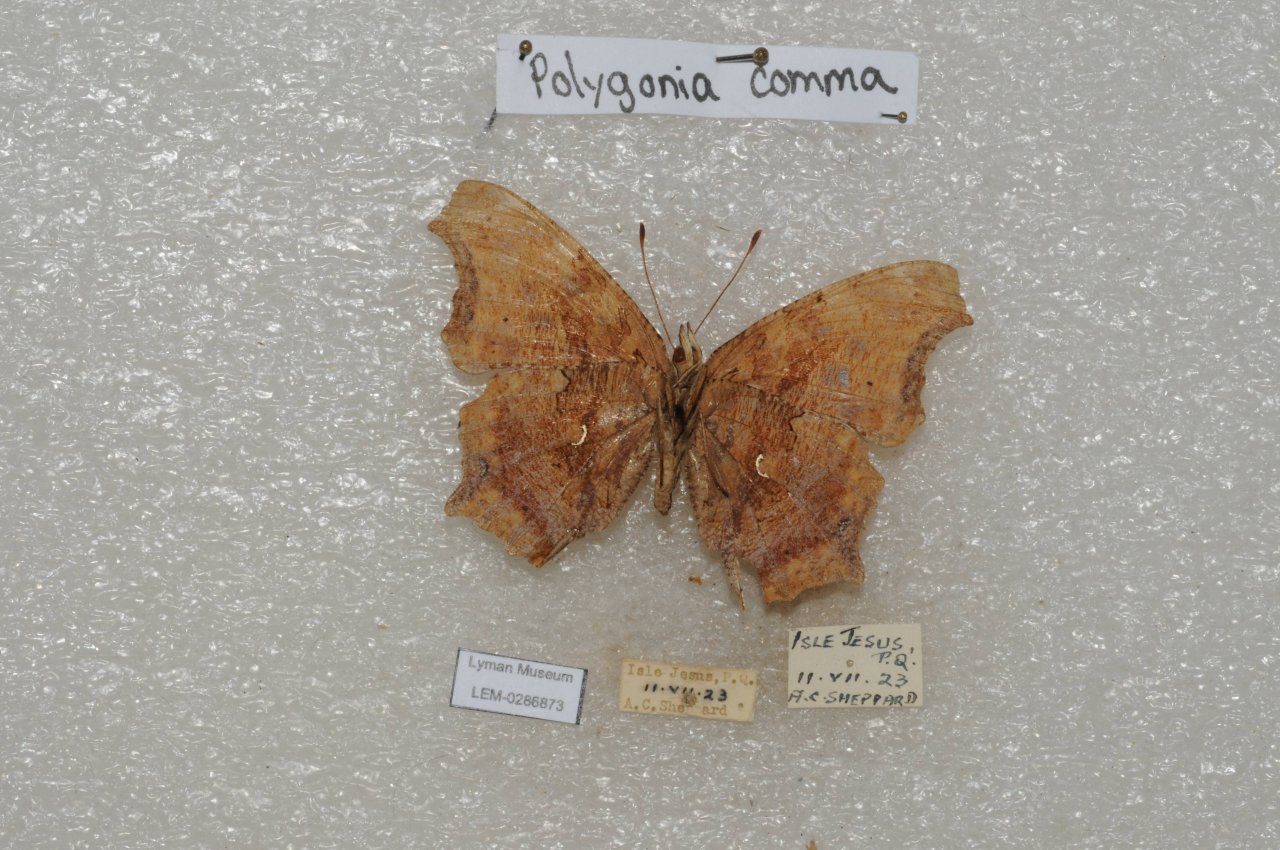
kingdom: Animalia
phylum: Arthropoda
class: Insecta
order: Lepidoptera
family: Nymphalidae
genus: Polygonia
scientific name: Polygonia comma
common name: Eastern Comma
